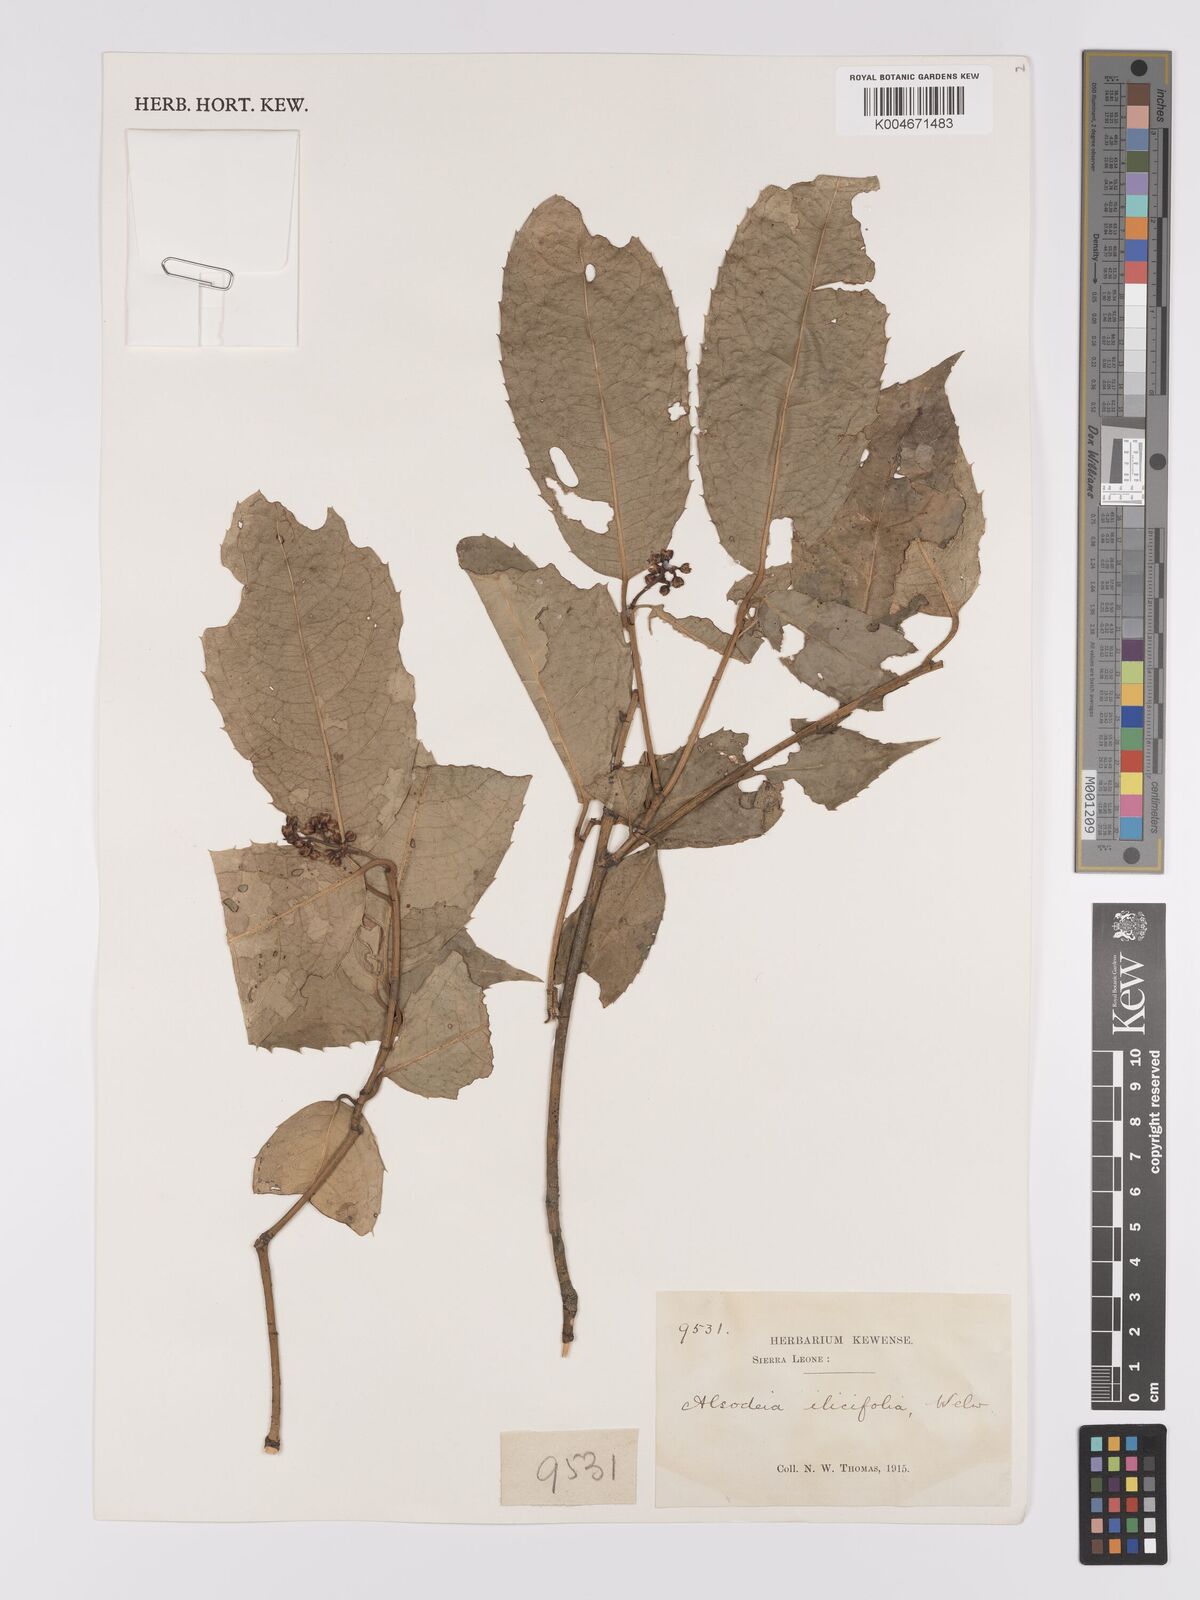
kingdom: Plantae
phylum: Tracheophyta
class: Magnoliopsida
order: Malpighiales
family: Violaceae
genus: Rinorea
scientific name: Rinorea ilicifolia
